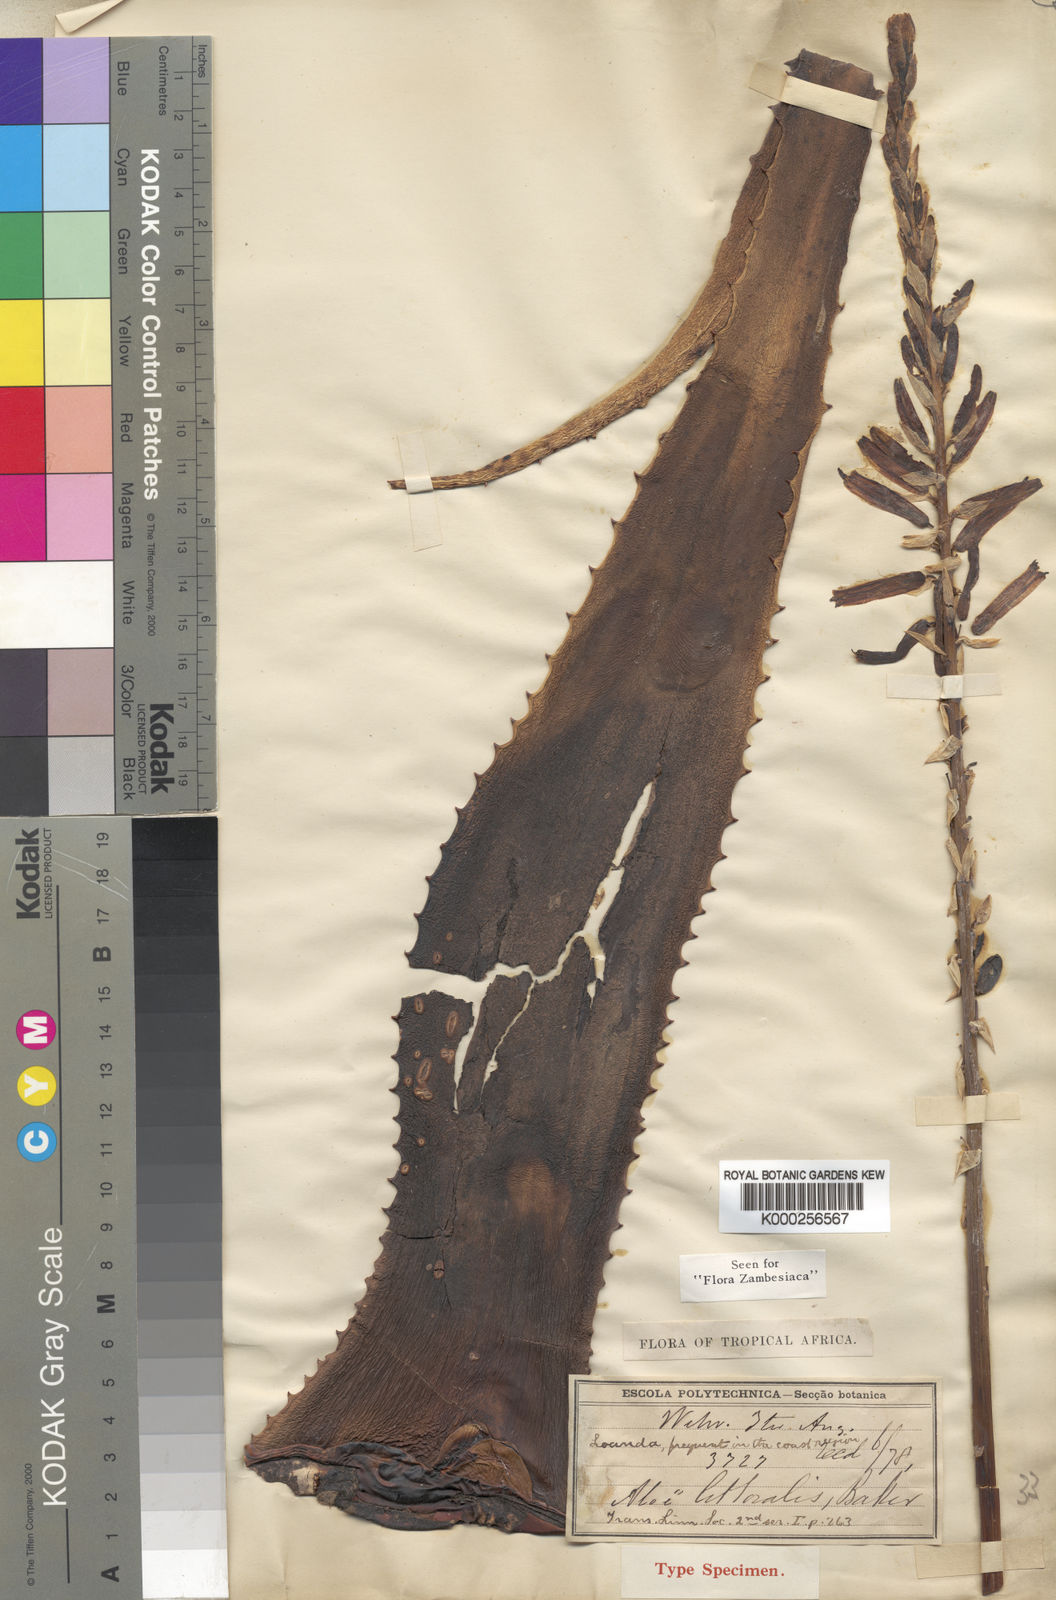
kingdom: Plantae
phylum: Tracheophyta
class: Liliopsida
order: Asparagales
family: Asphodelaceae
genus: Aloe
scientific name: Aloe littoralis
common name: Luanda tree aloe
